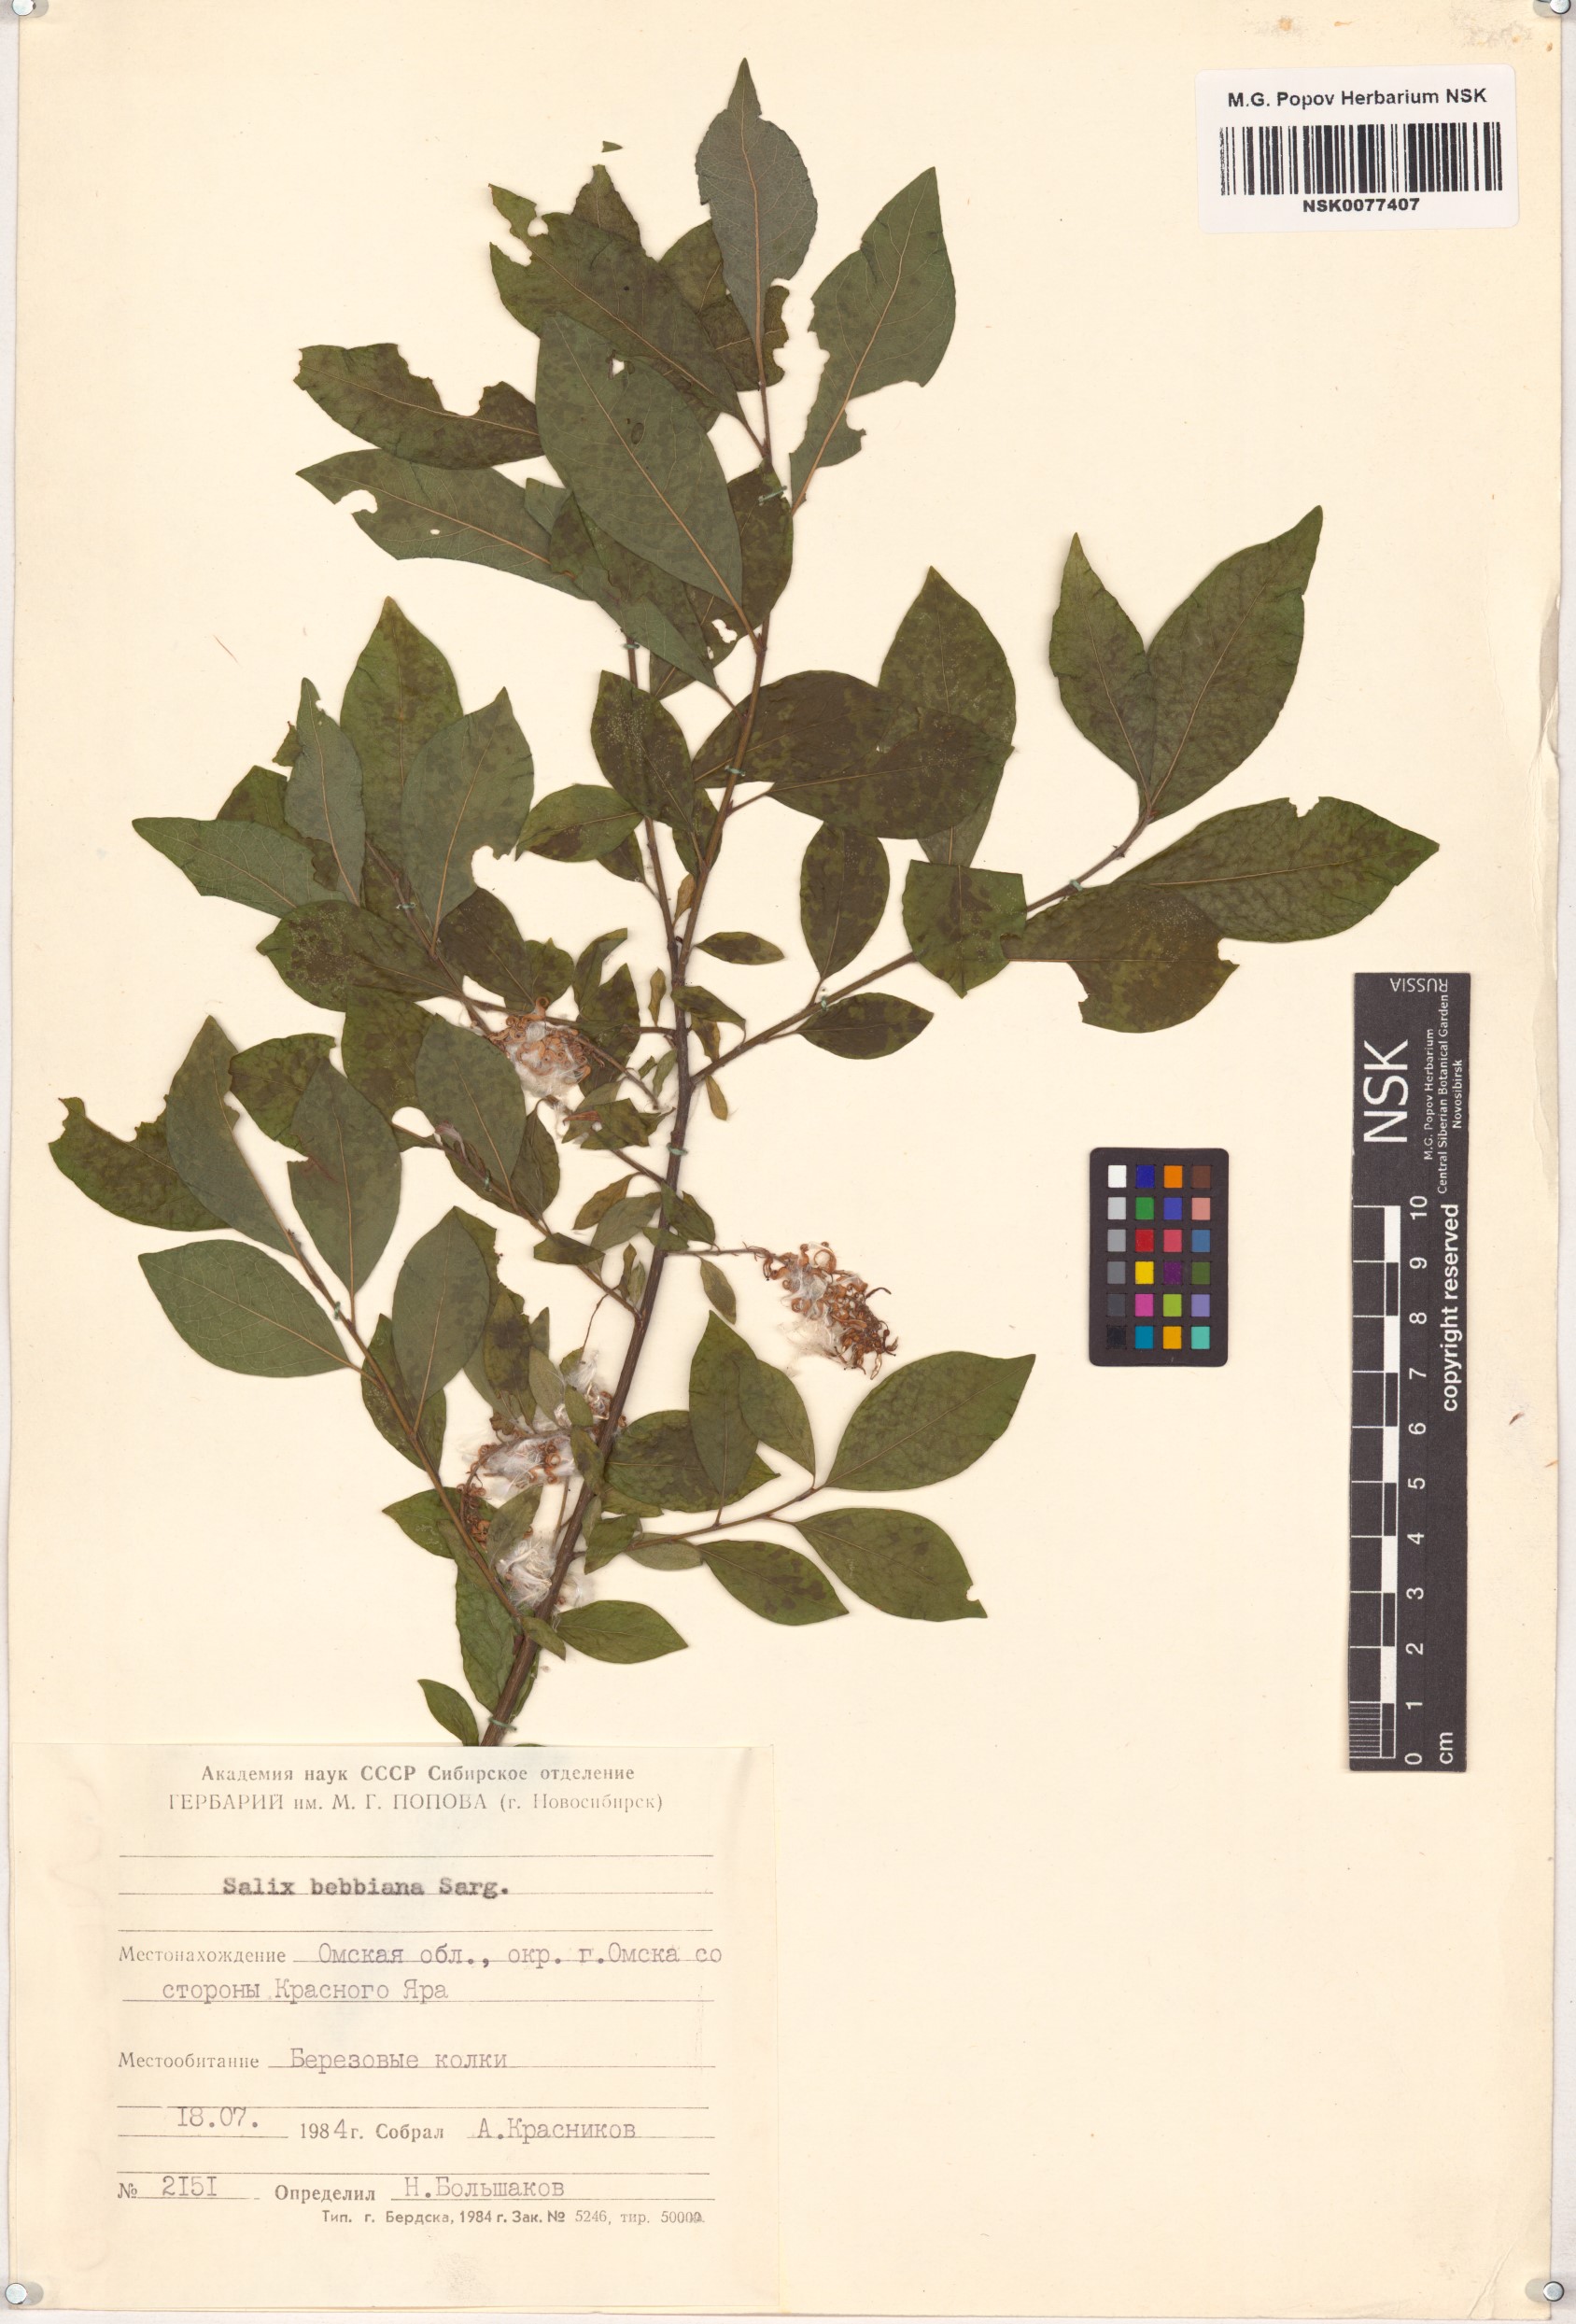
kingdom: Plantae
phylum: Tracheophyta
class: Magnoliopsida
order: Malpighiales
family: Salicaceae
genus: Salix
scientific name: Salix bebbiana
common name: Bebb's willow
